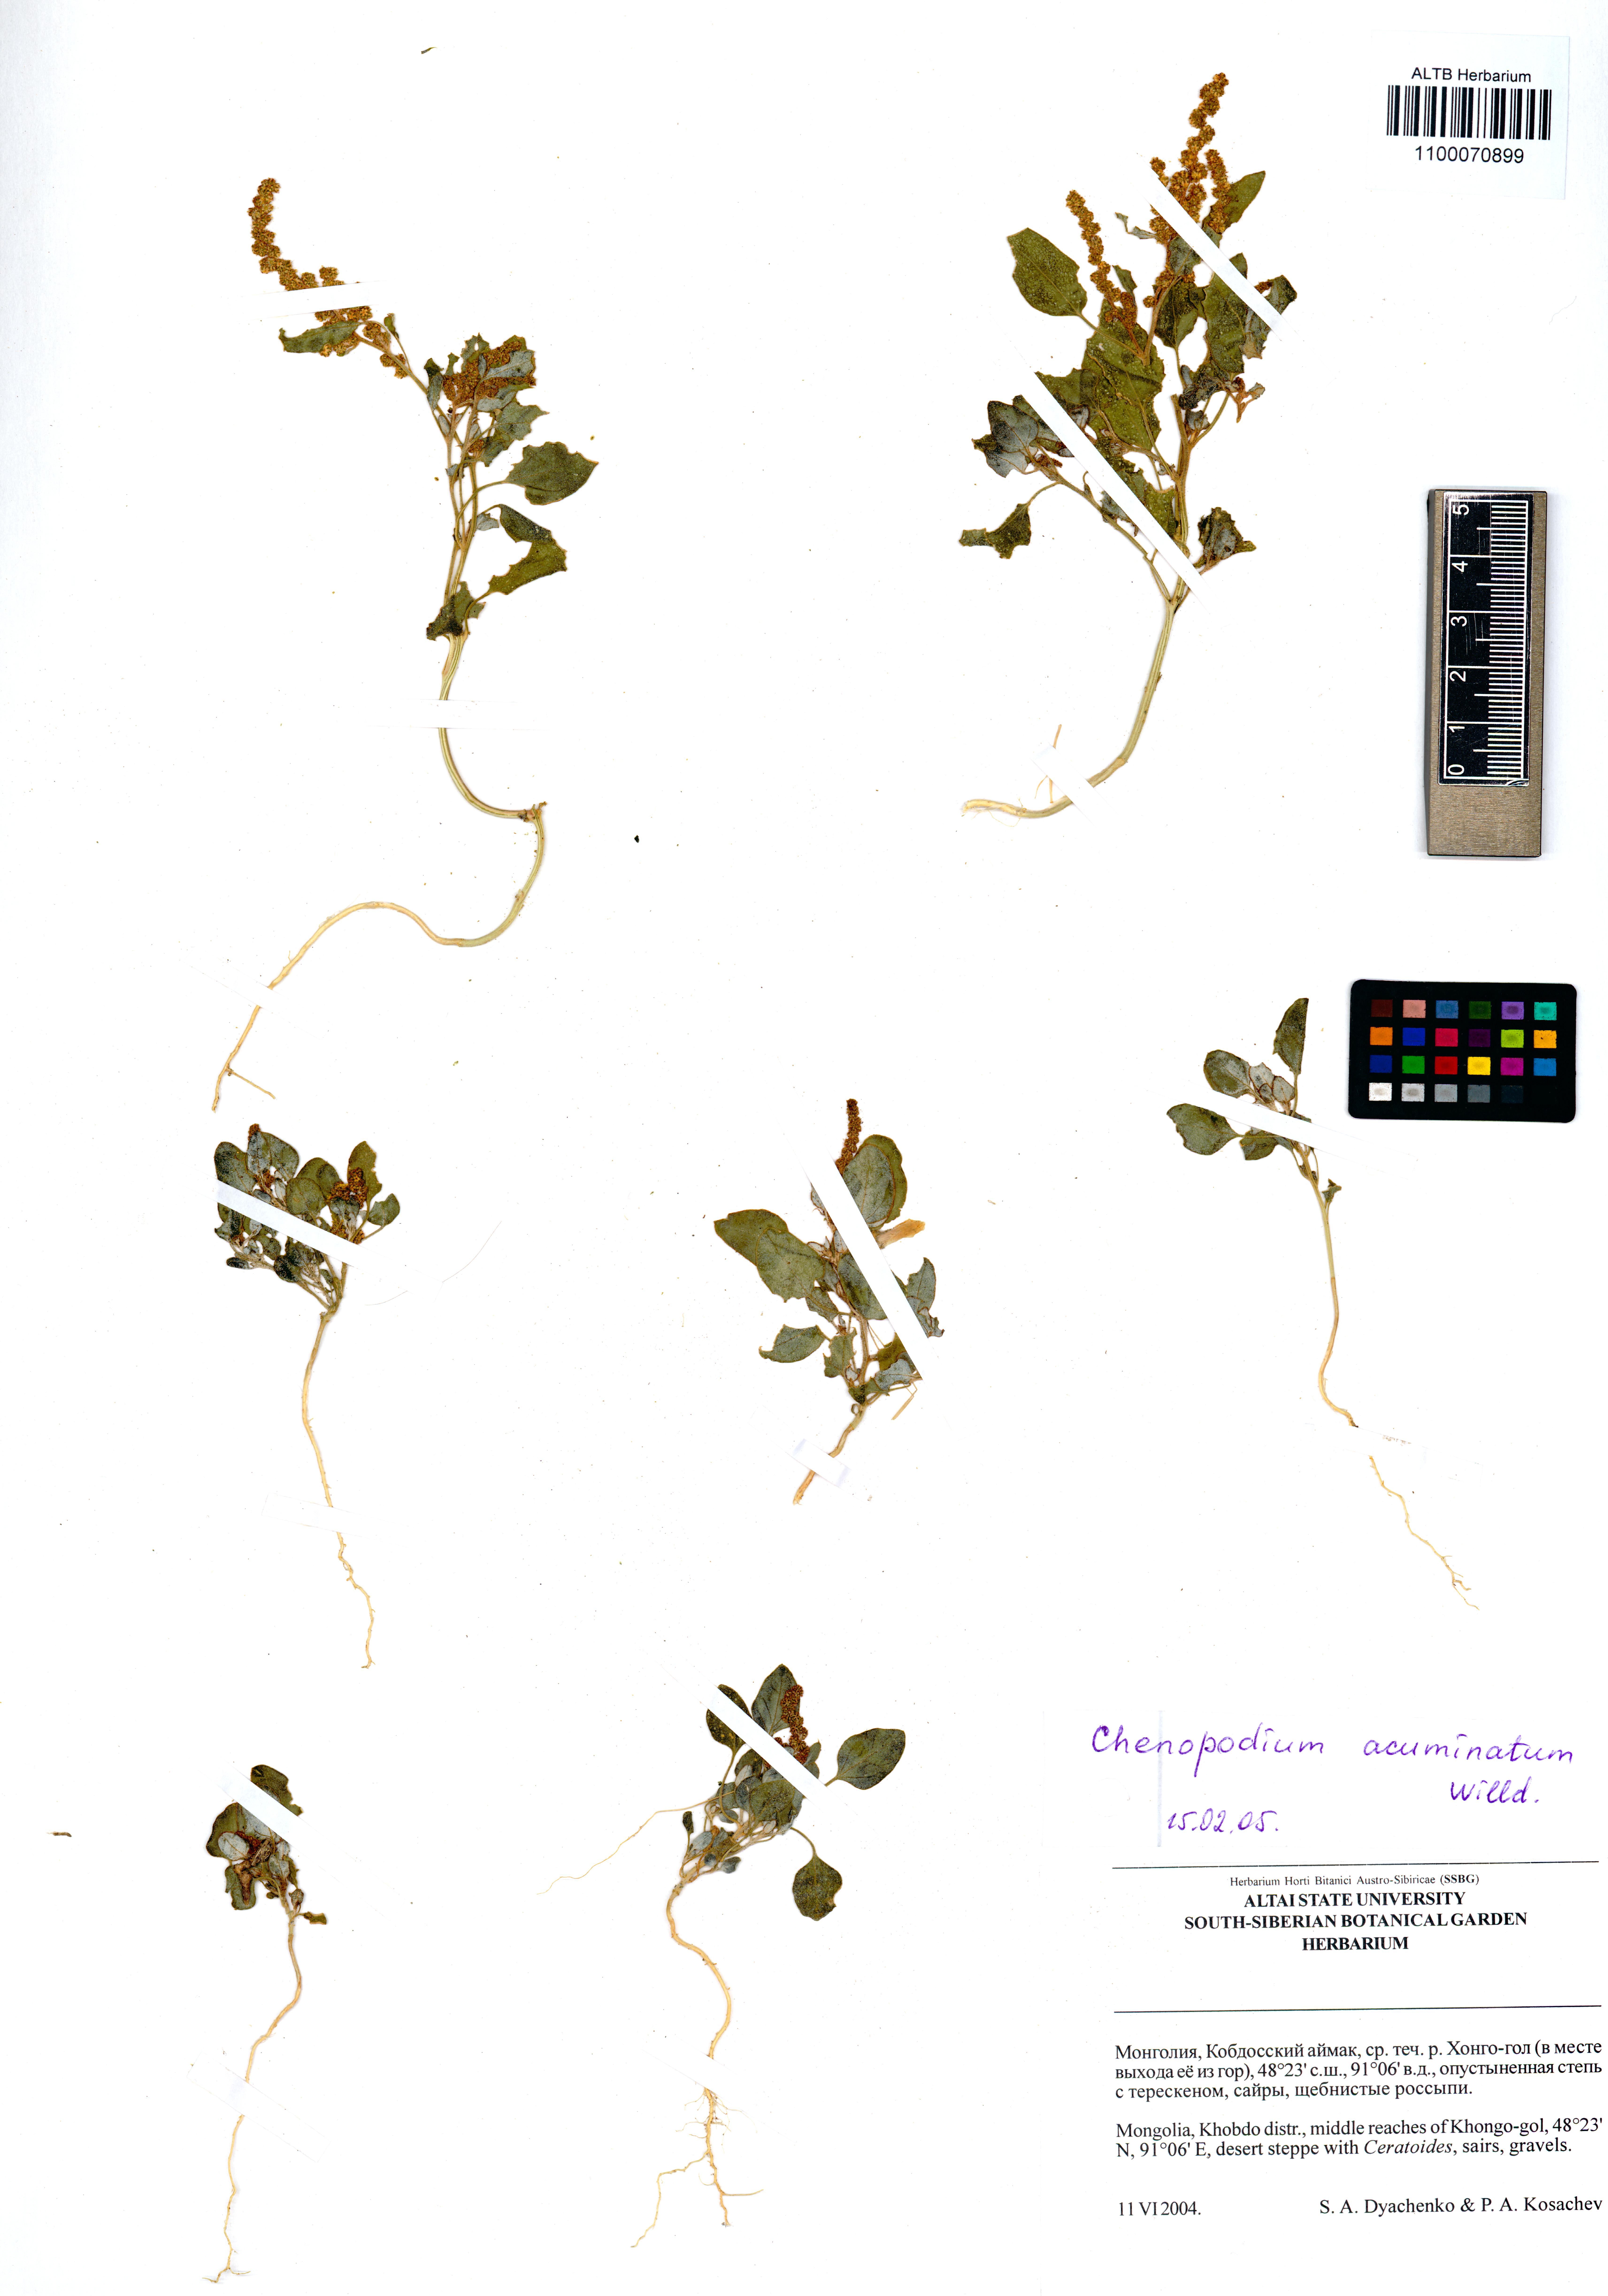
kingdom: Plantae
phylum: Tracheophyta
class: Magnoliopsida
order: Caryophyllales
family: Amaranthaceae
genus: Oxybasis
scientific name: Oxybasis rubra
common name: Red goosefoot
